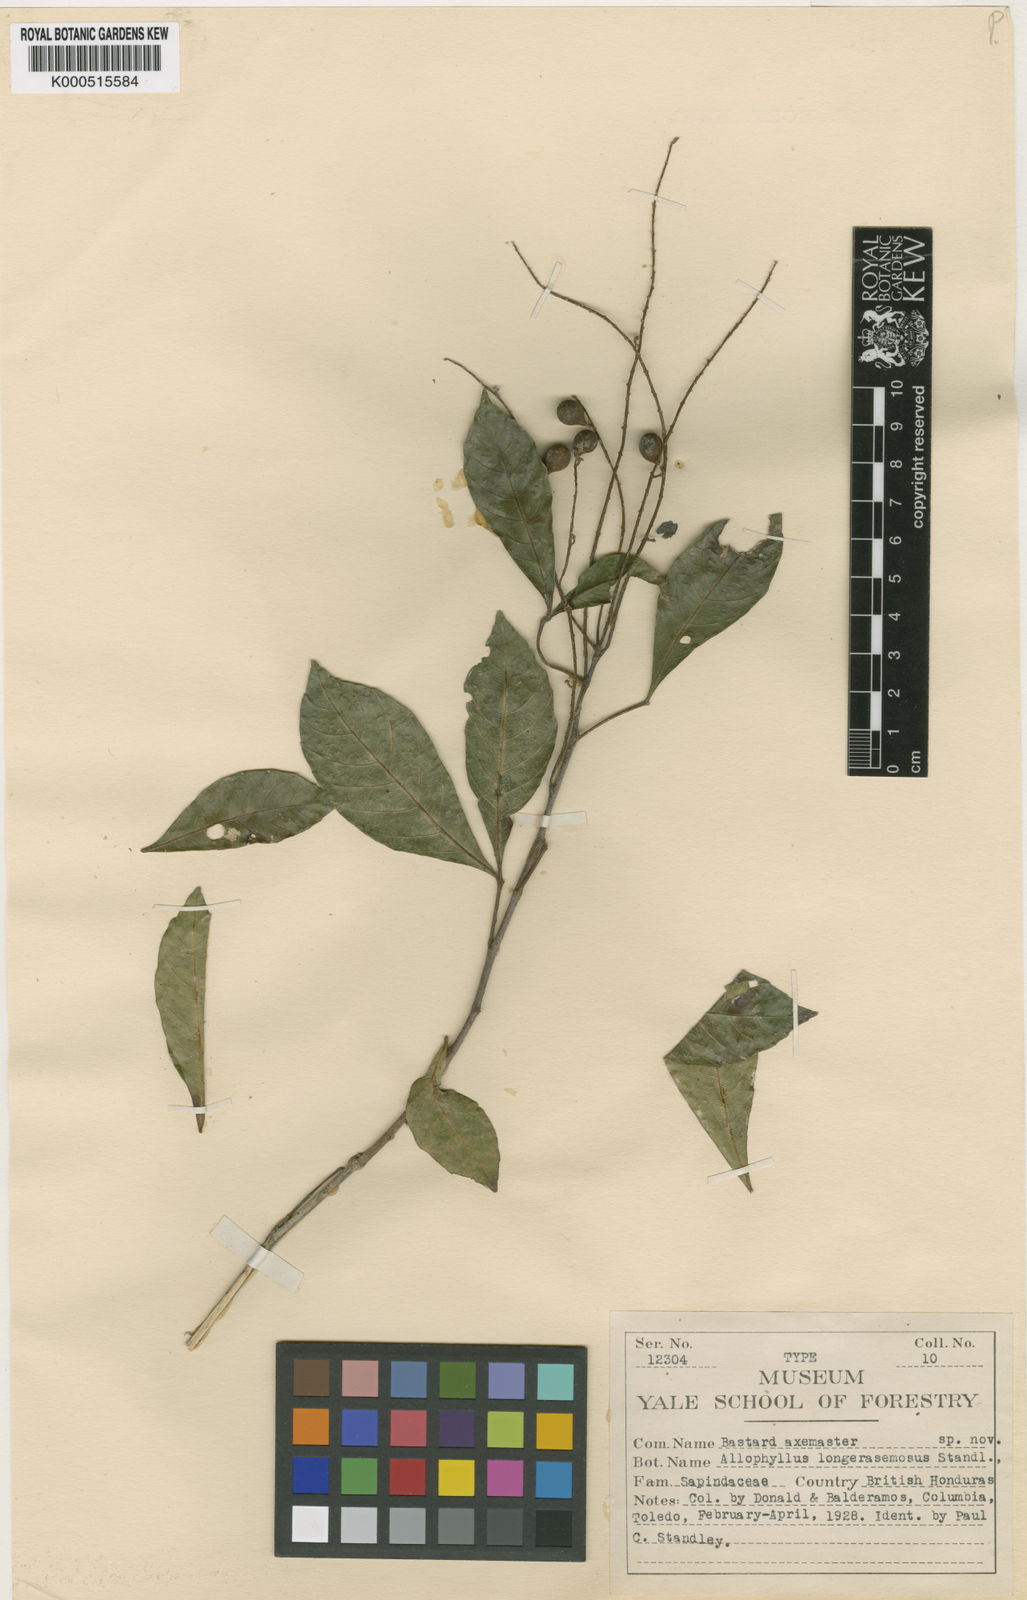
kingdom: Plantae
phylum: Tracheophyta
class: Magnoliopsida
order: Sapindales
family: Sapindaceae
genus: Allophylus
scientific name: Allophylus
